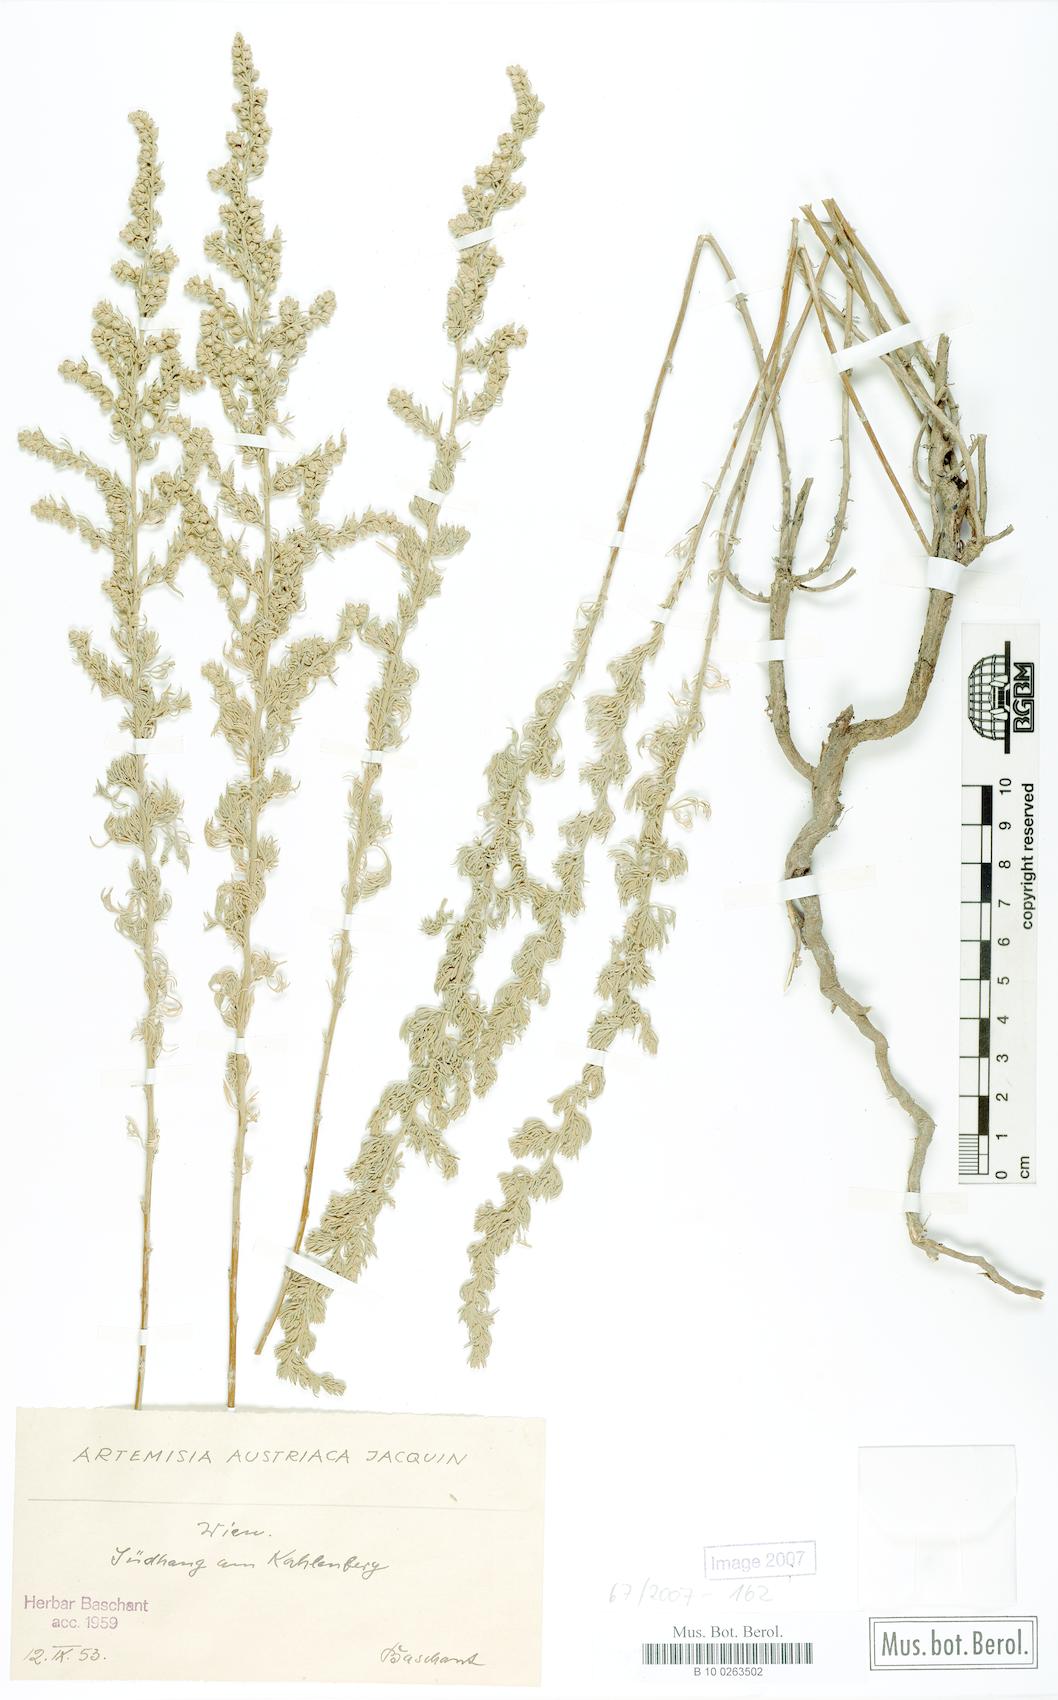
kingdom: Plantae
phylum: Tracheophyta
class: Magnoliopsida
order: Asterales
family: Asteraceae
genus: Artemisia
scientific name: Artemisia austriaca
